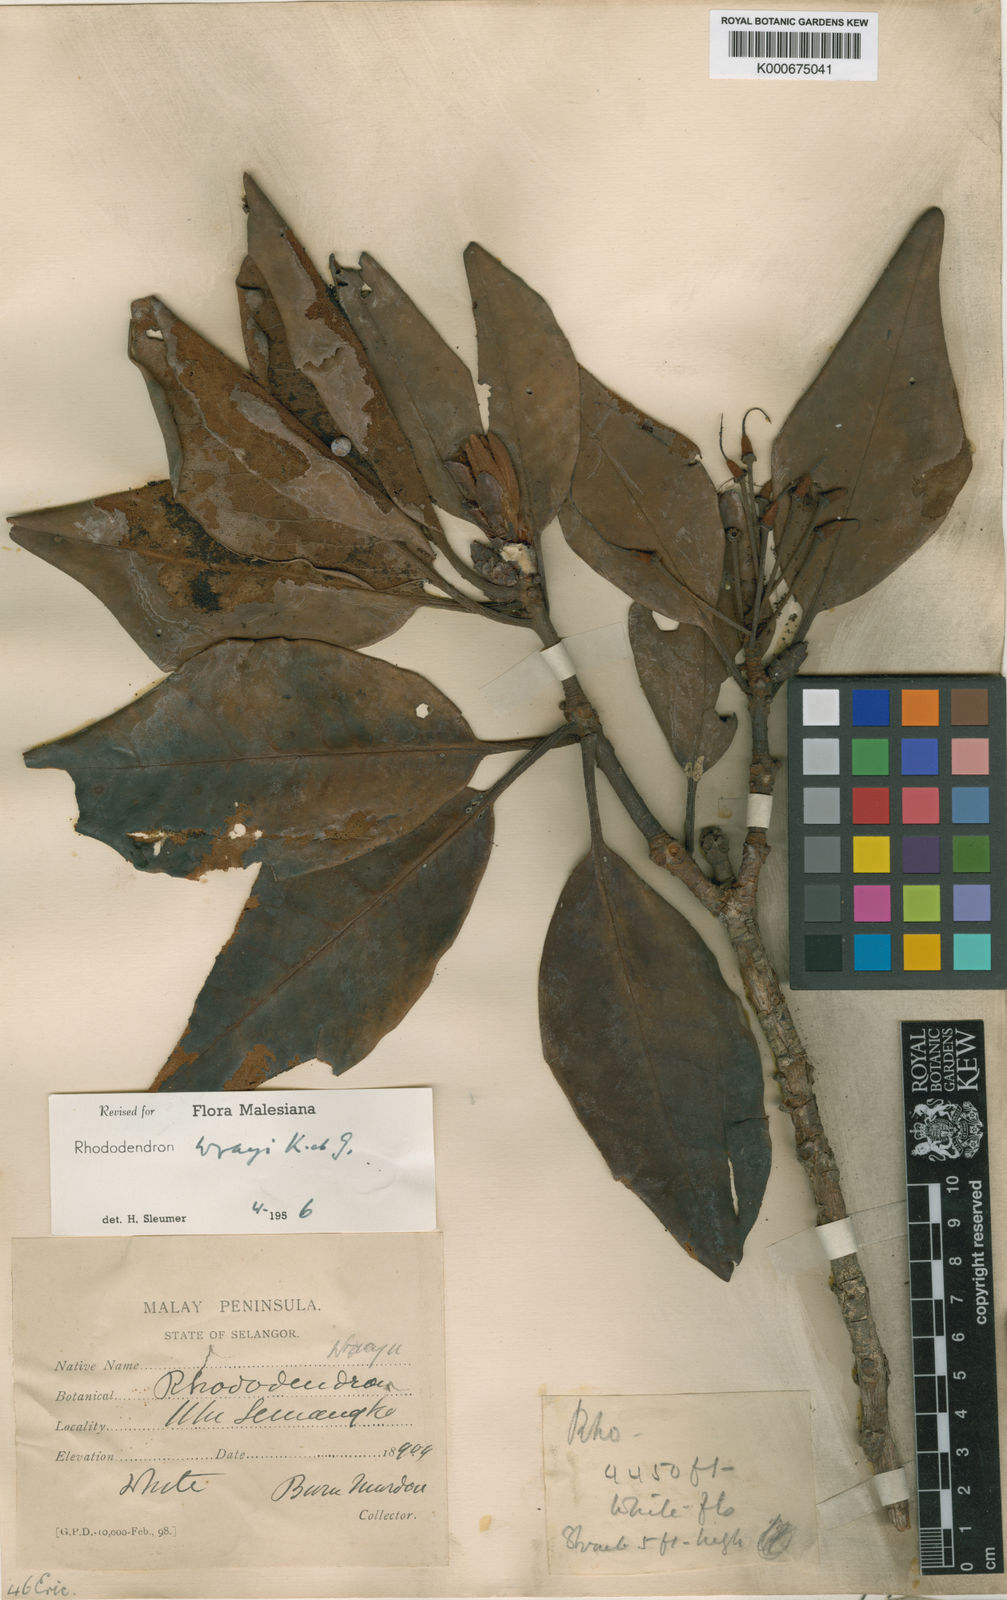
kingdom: Plantae
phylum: Tracheophyta
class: Magnoliopsida
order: Ericales
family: Ericaceae
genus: Rhododendron
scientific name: Rhododendron wrayi
